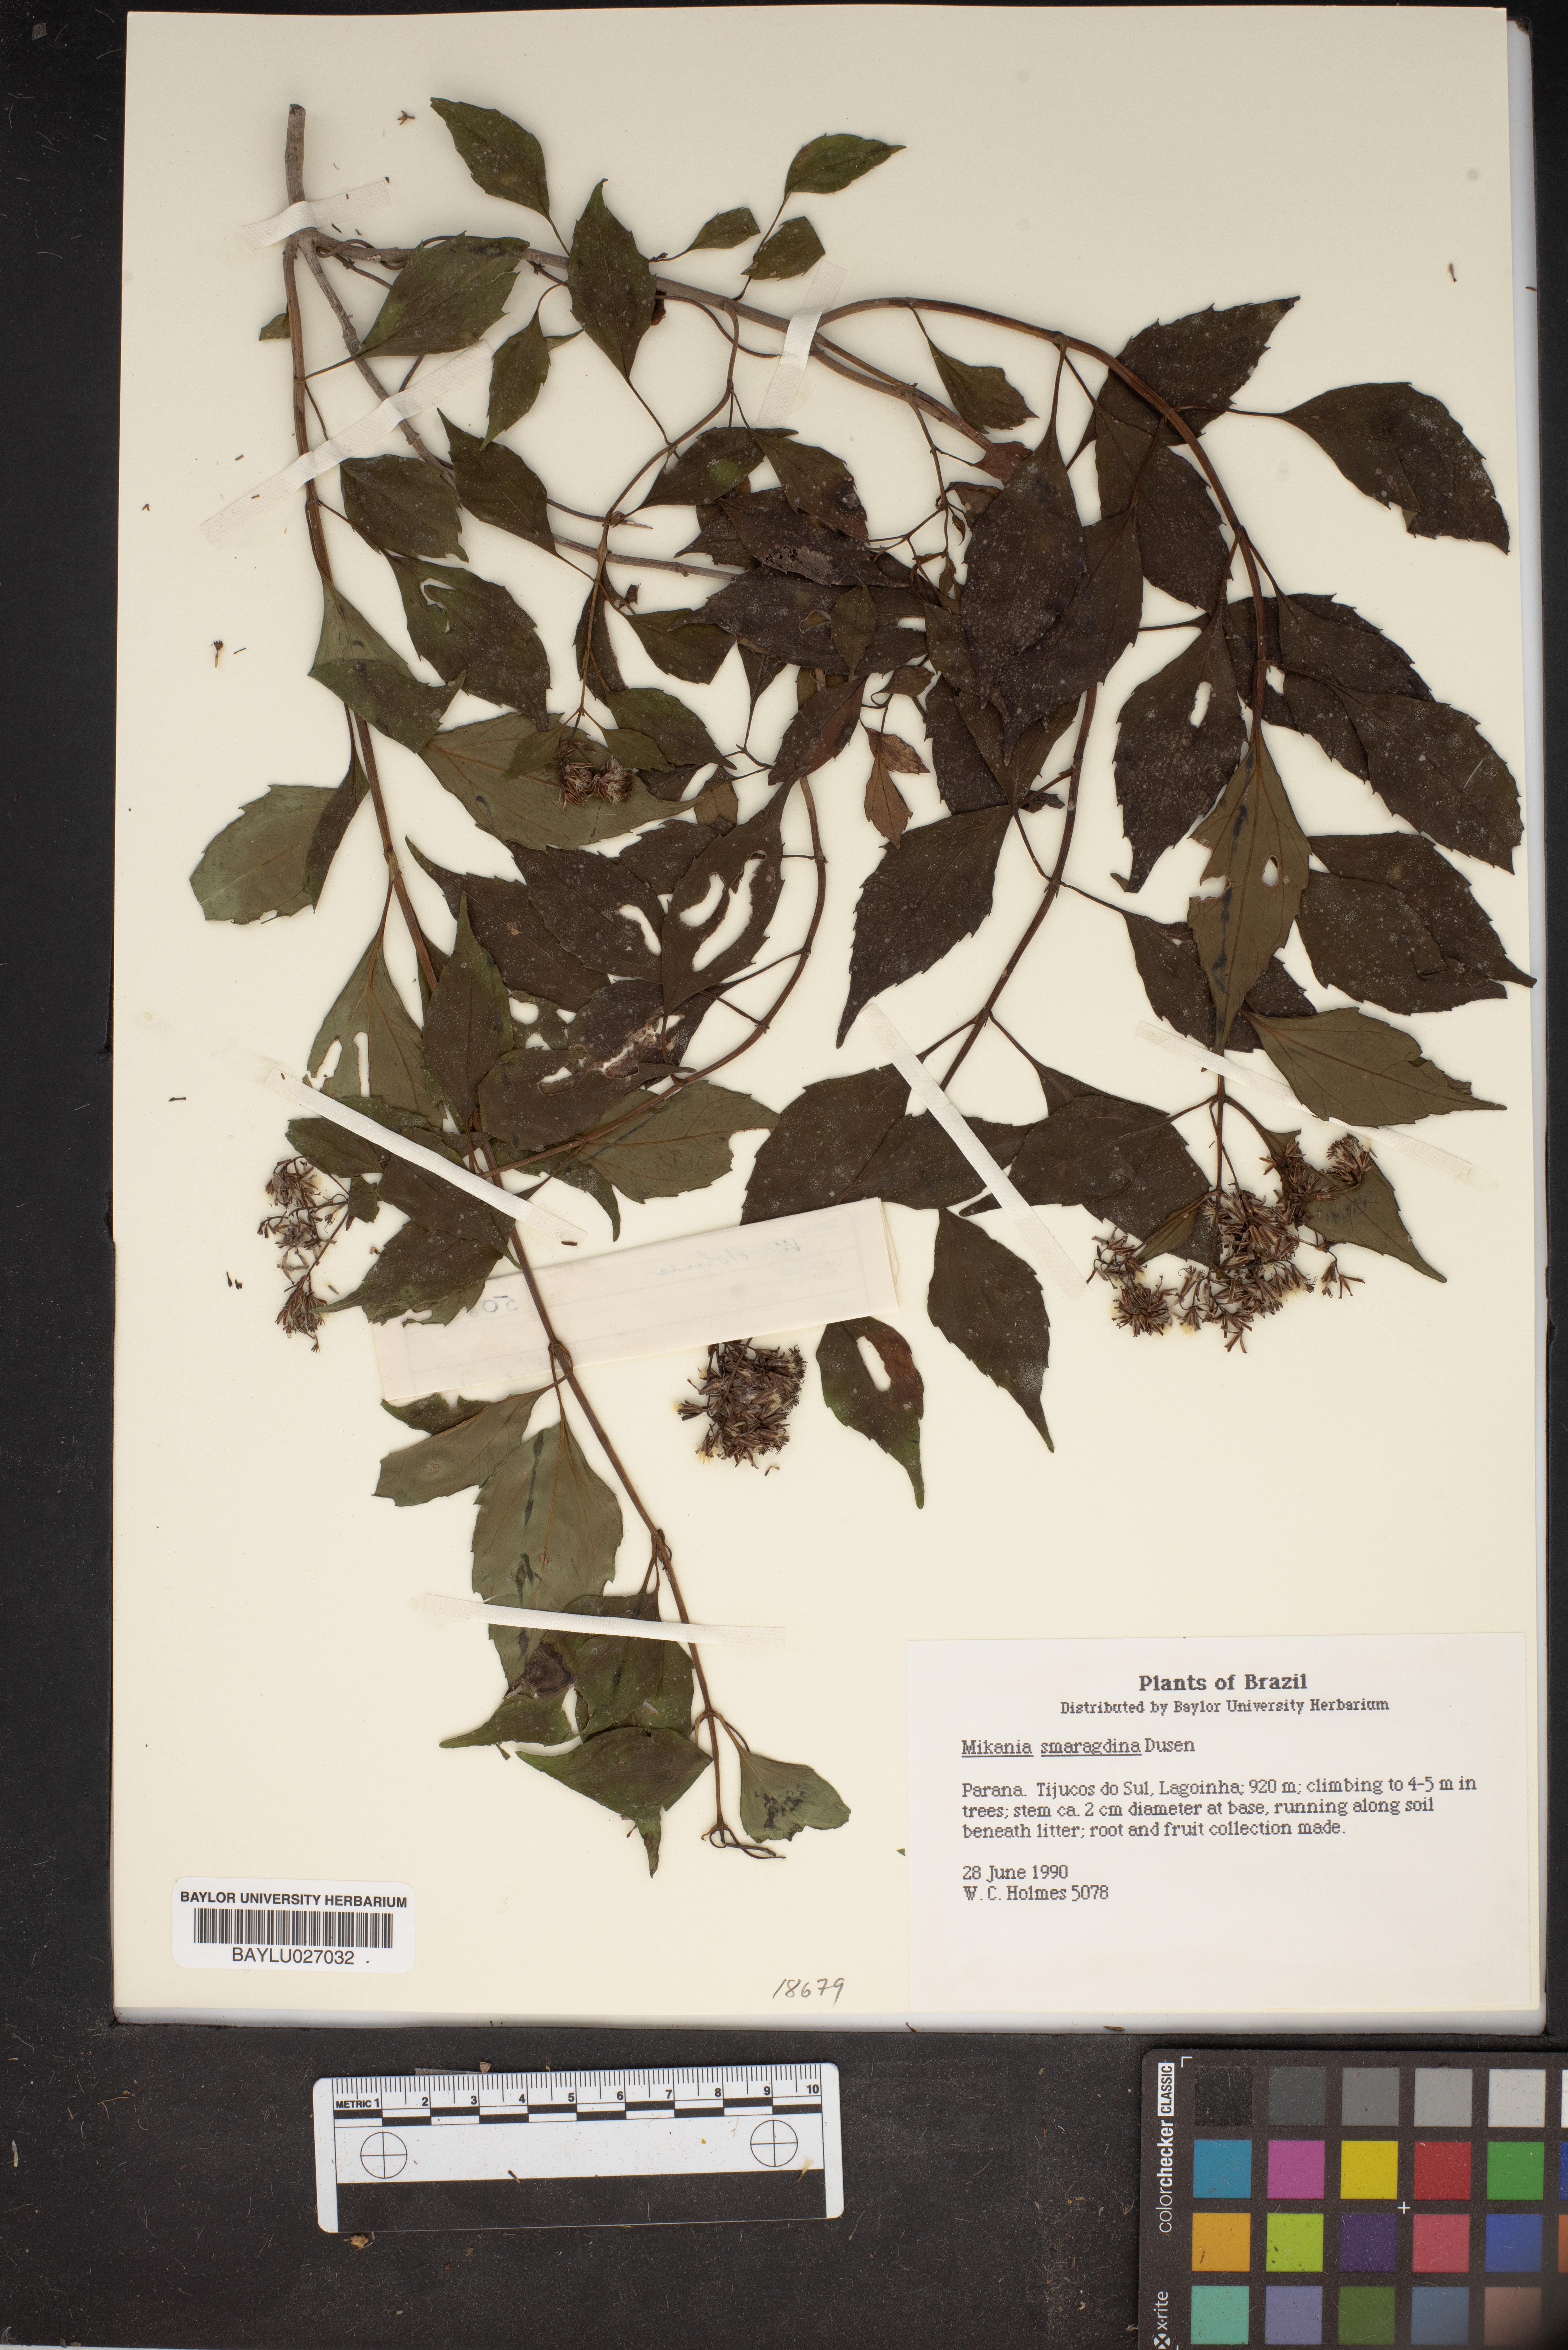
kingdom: Plantae
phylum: Tracheophyta
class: Magnoliopsida
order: Asterales
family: Asteraceae
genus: Mikania
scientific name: Mikania smaragdina
